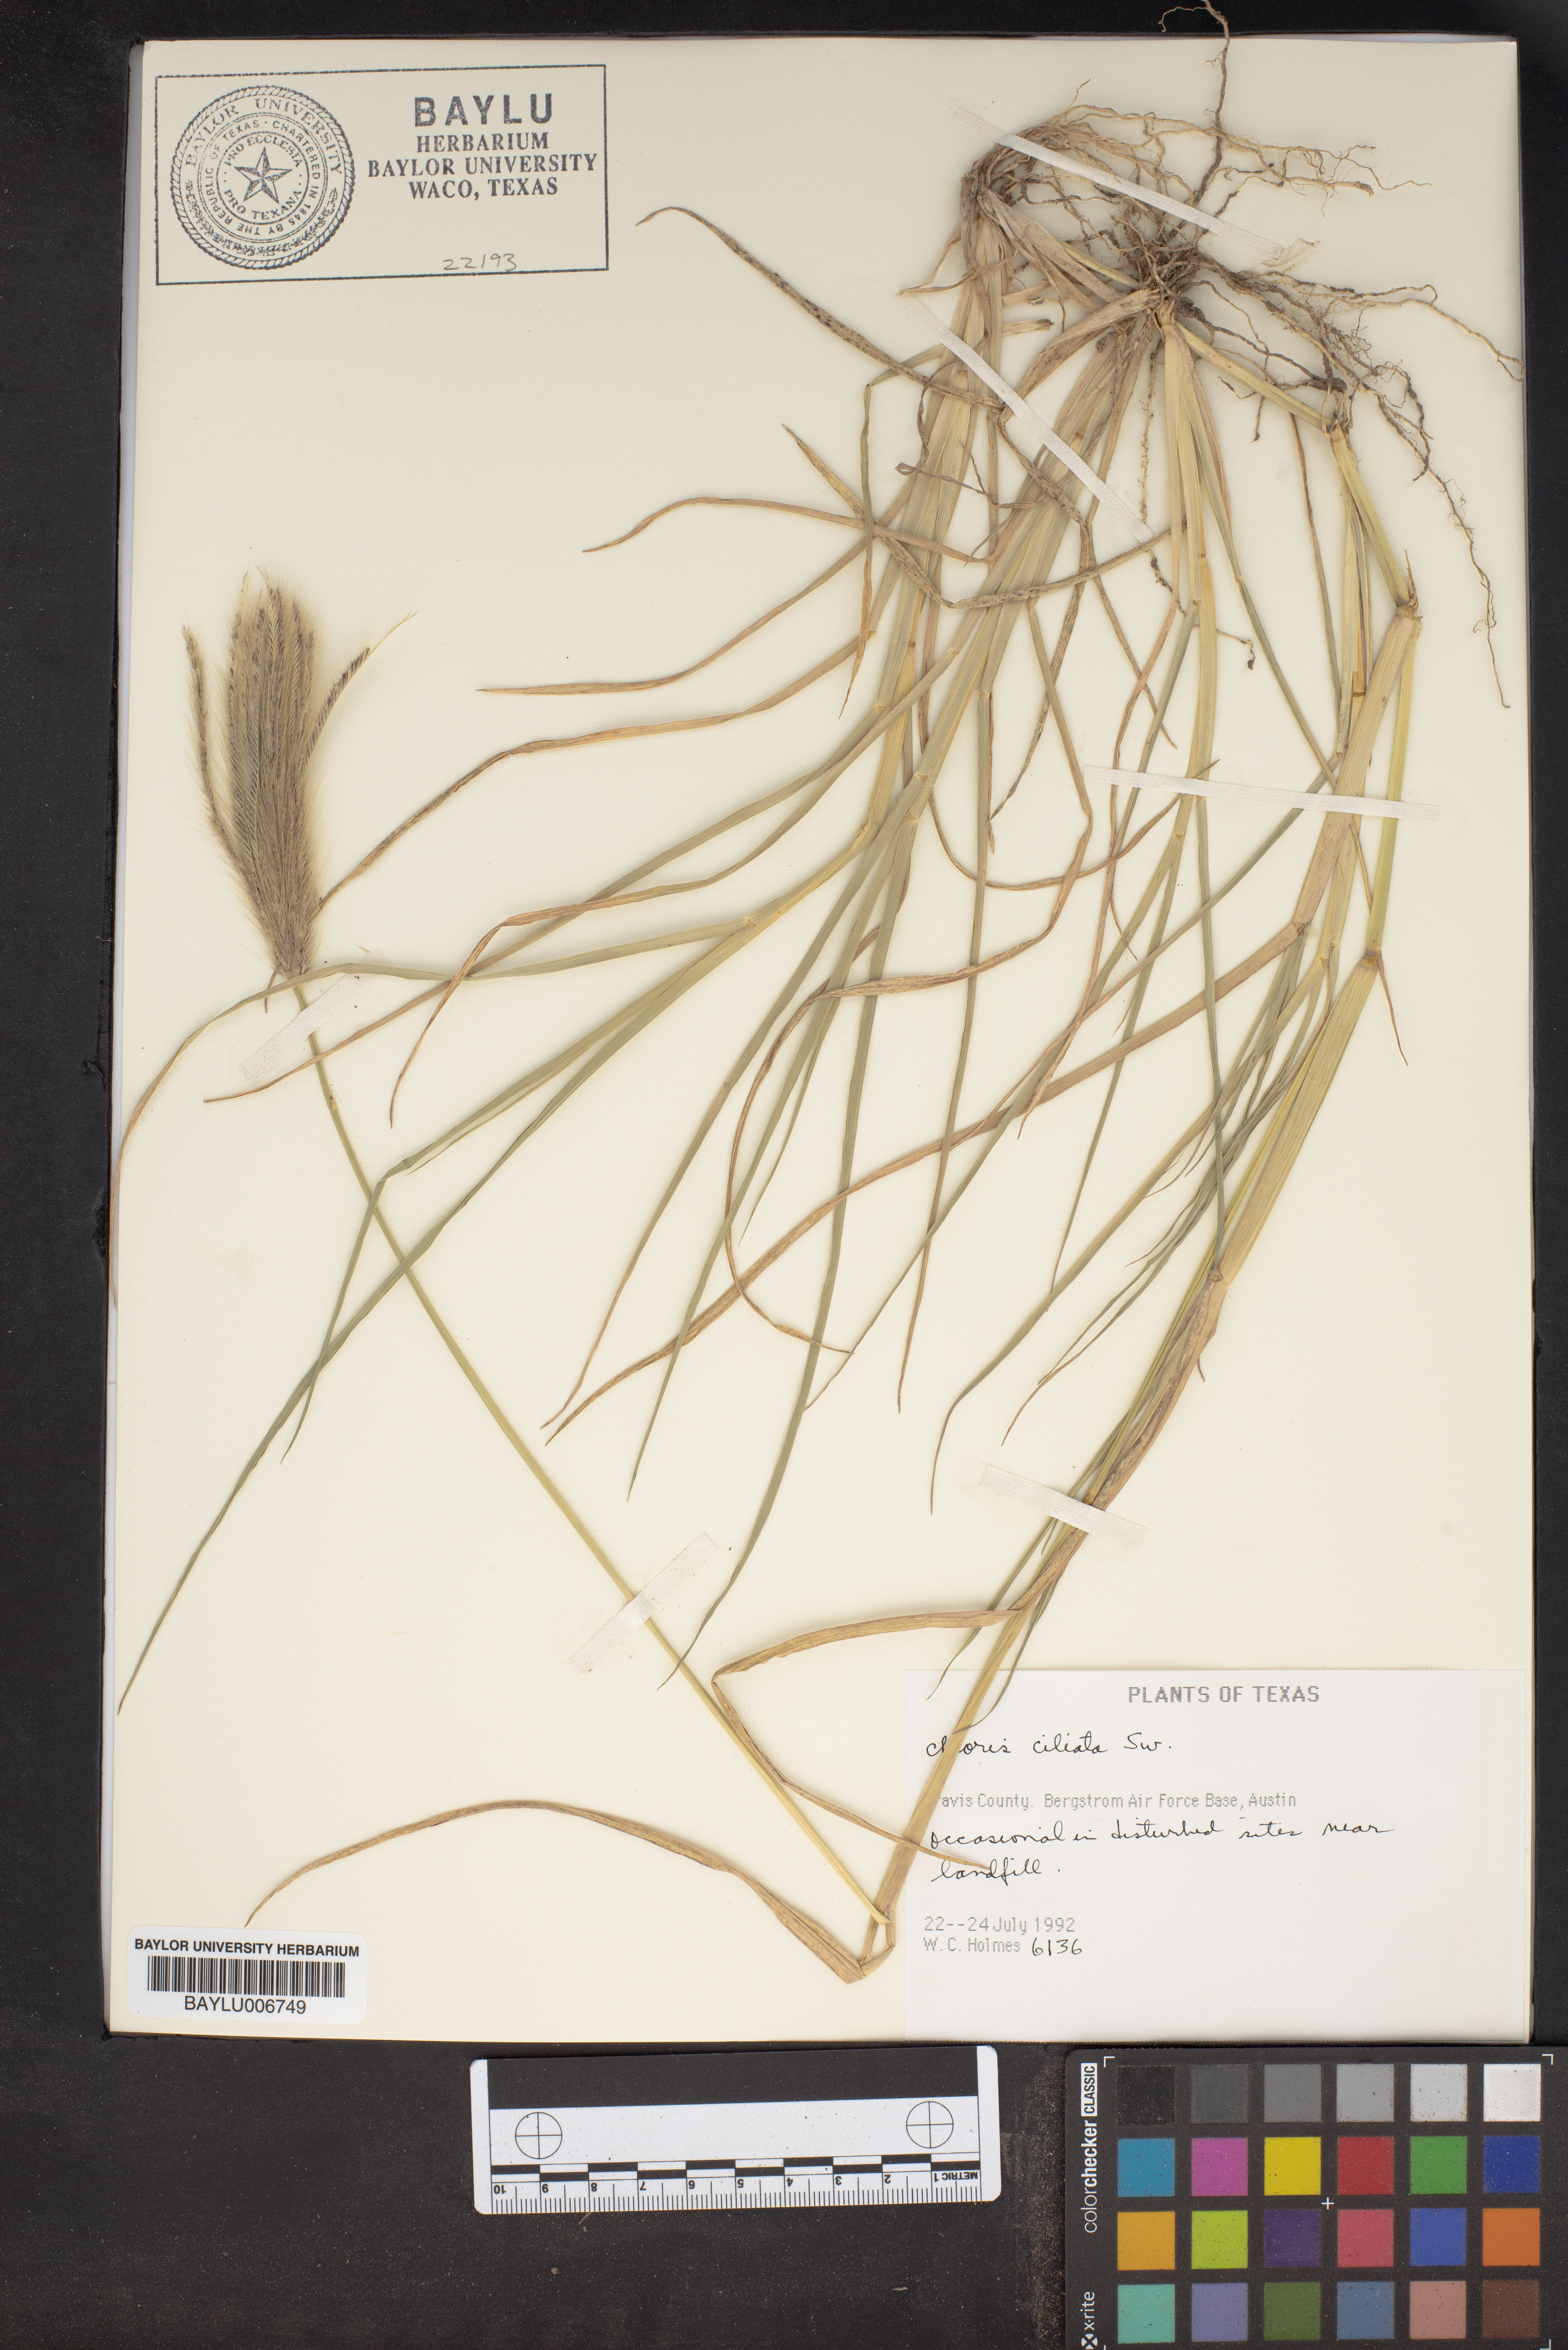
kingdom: Plantae
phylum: Tracheophyta
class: Liliopsida
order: Poales
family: Poaceae
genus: Stapfochloa
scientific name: Stapfochloa ciliata
